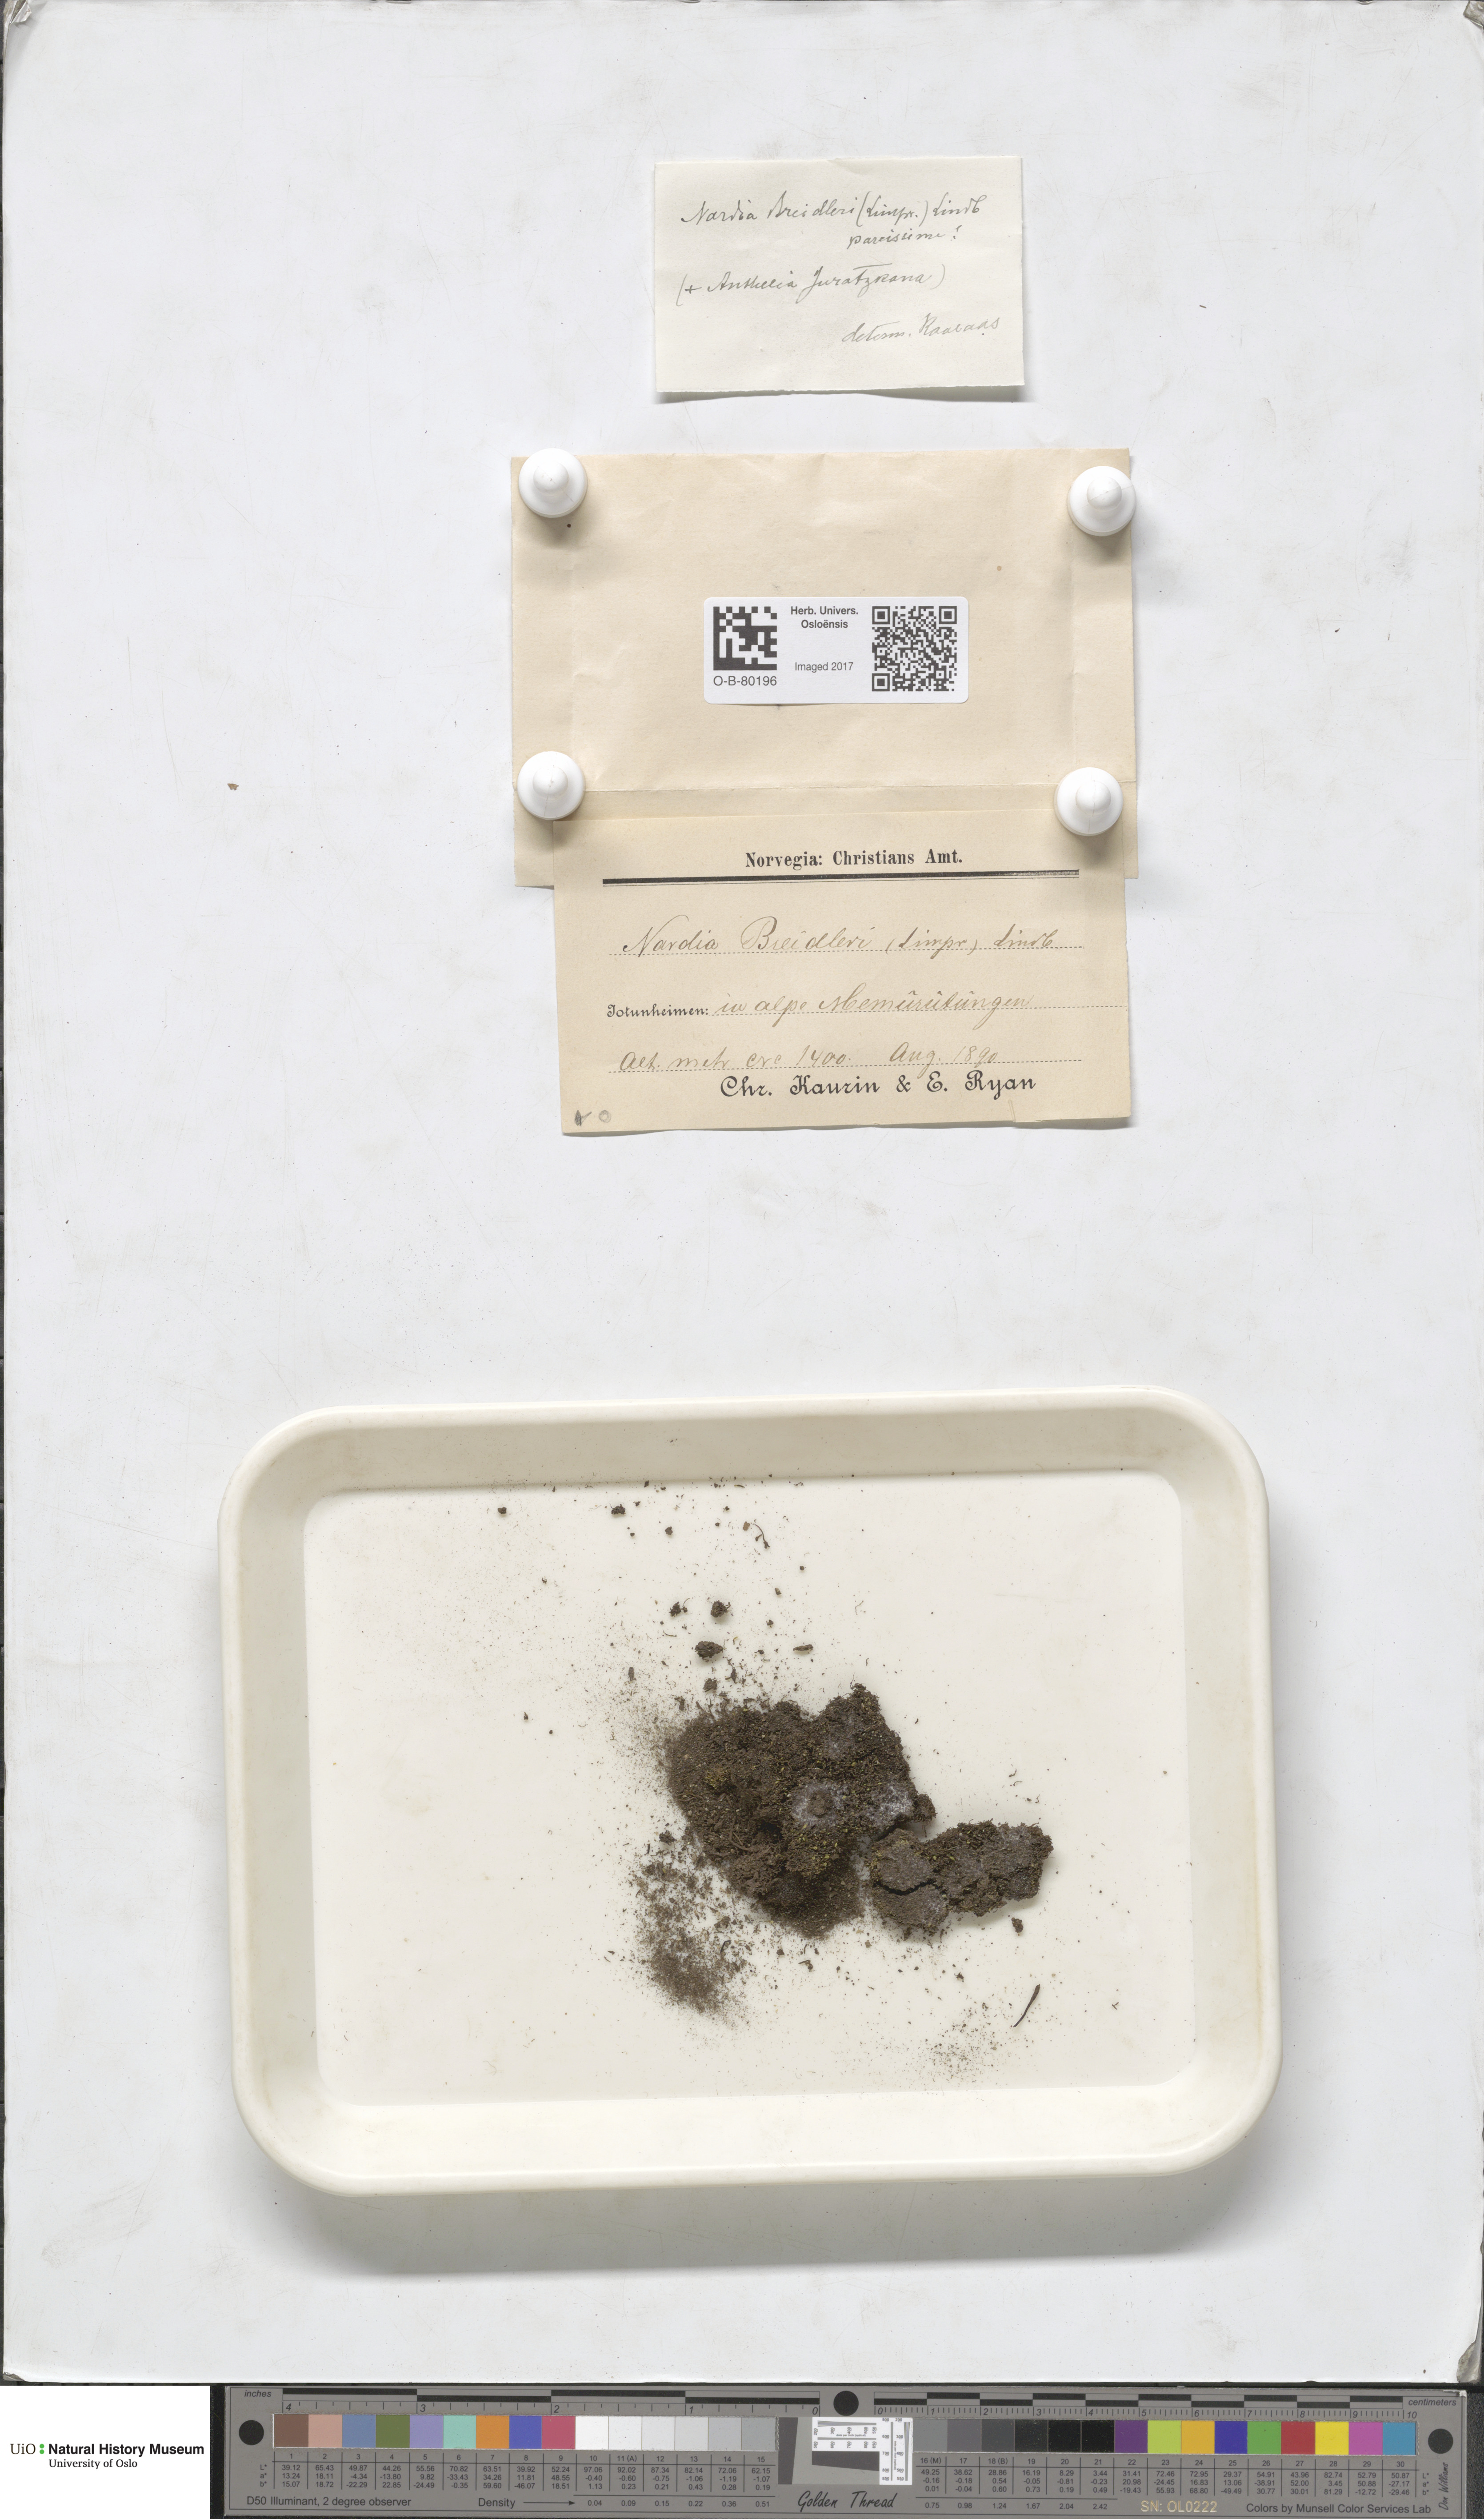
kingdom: Plantae
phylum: Marchantiophyta
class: Jungermanniopsida
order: Jungermanniales
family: Gymnomitriaceae
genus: Nardia
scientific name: Nardia breidleri
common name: Book flapwort
